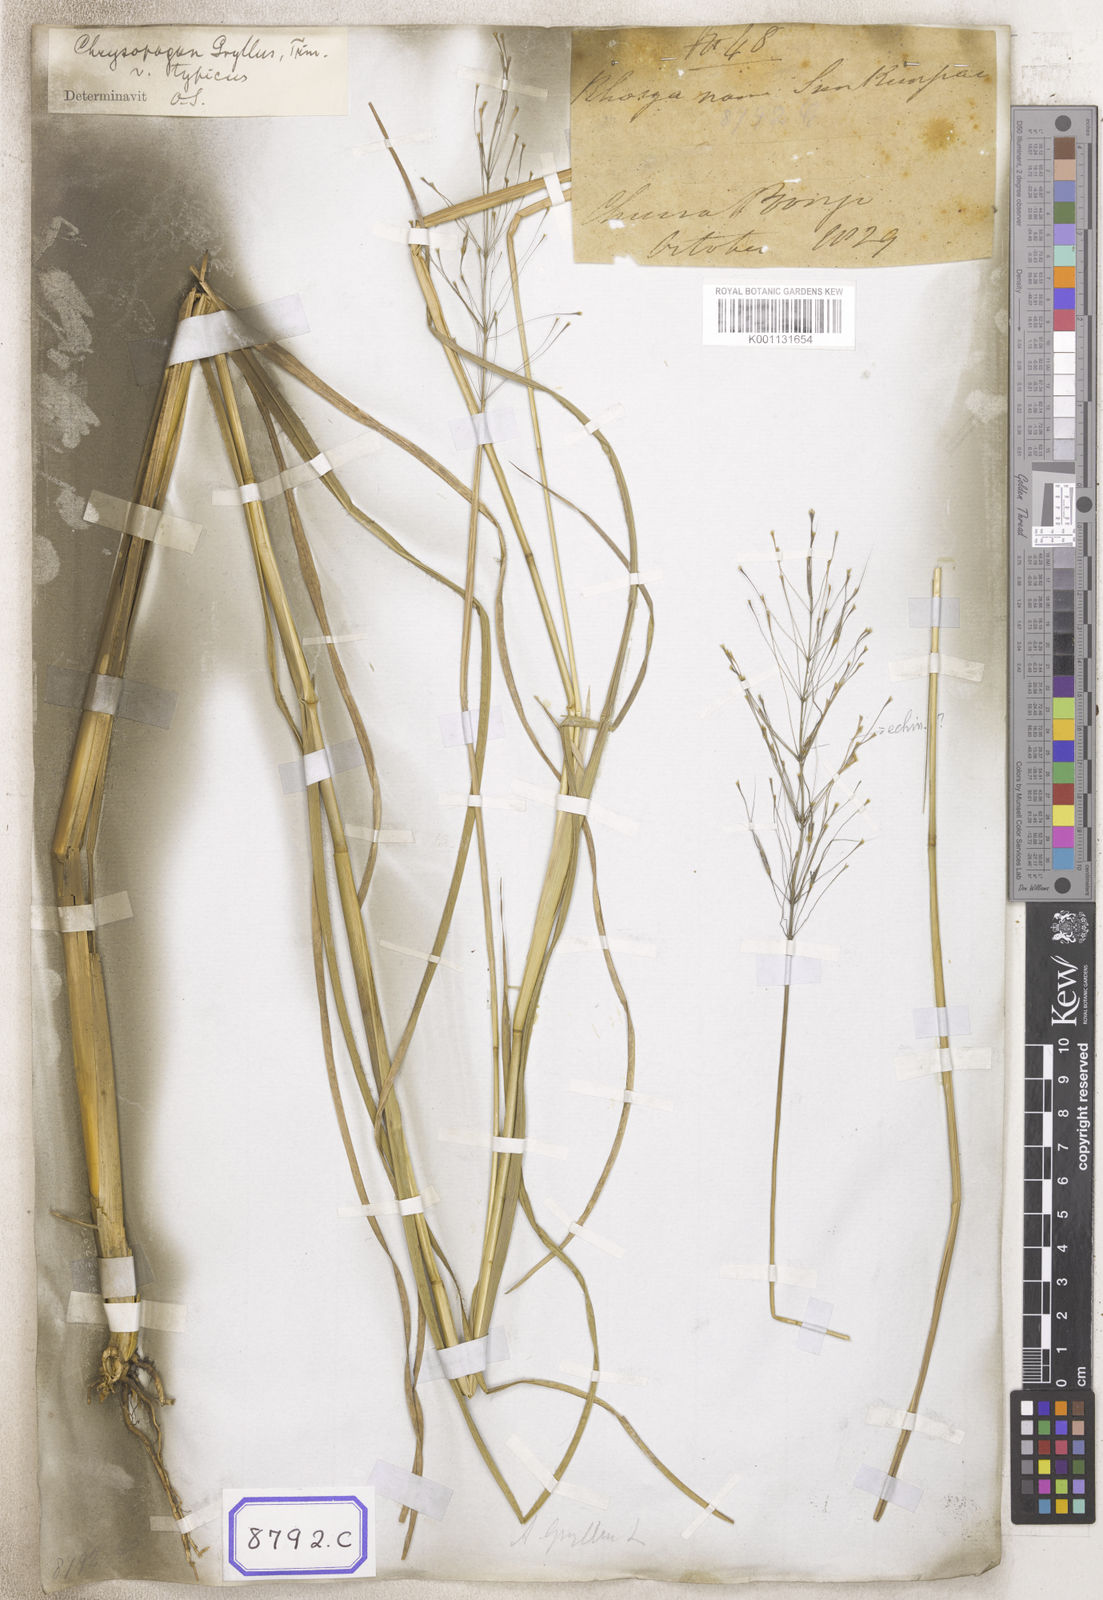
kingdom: Plantae
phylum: Tracheophyta
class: Liliopsida
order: Poales
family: Poaceae
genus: Chrysopogon
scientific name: Chrysopogon
